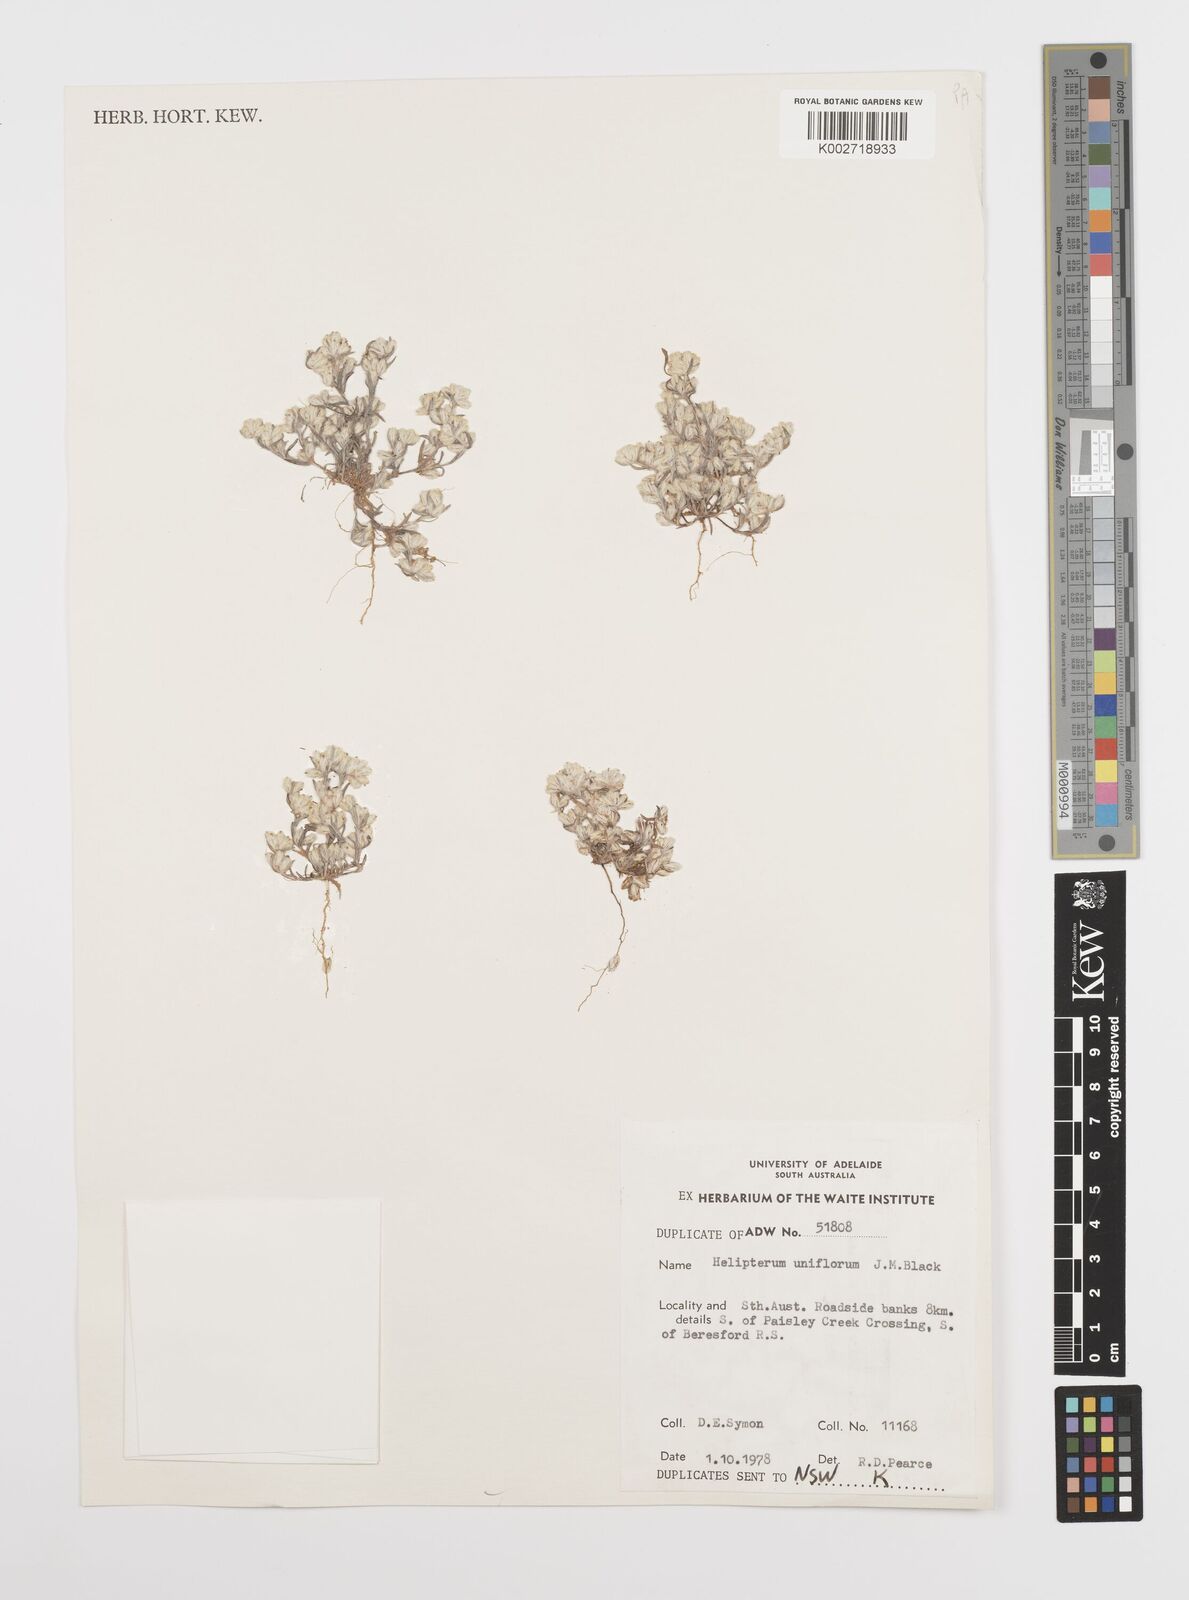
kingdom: Plantae
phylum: Tracheophyta
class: Magnoliopsida
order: Asterales
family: Asteraceae
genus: Rhodanthe
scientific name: Rhodanthe uniflora
